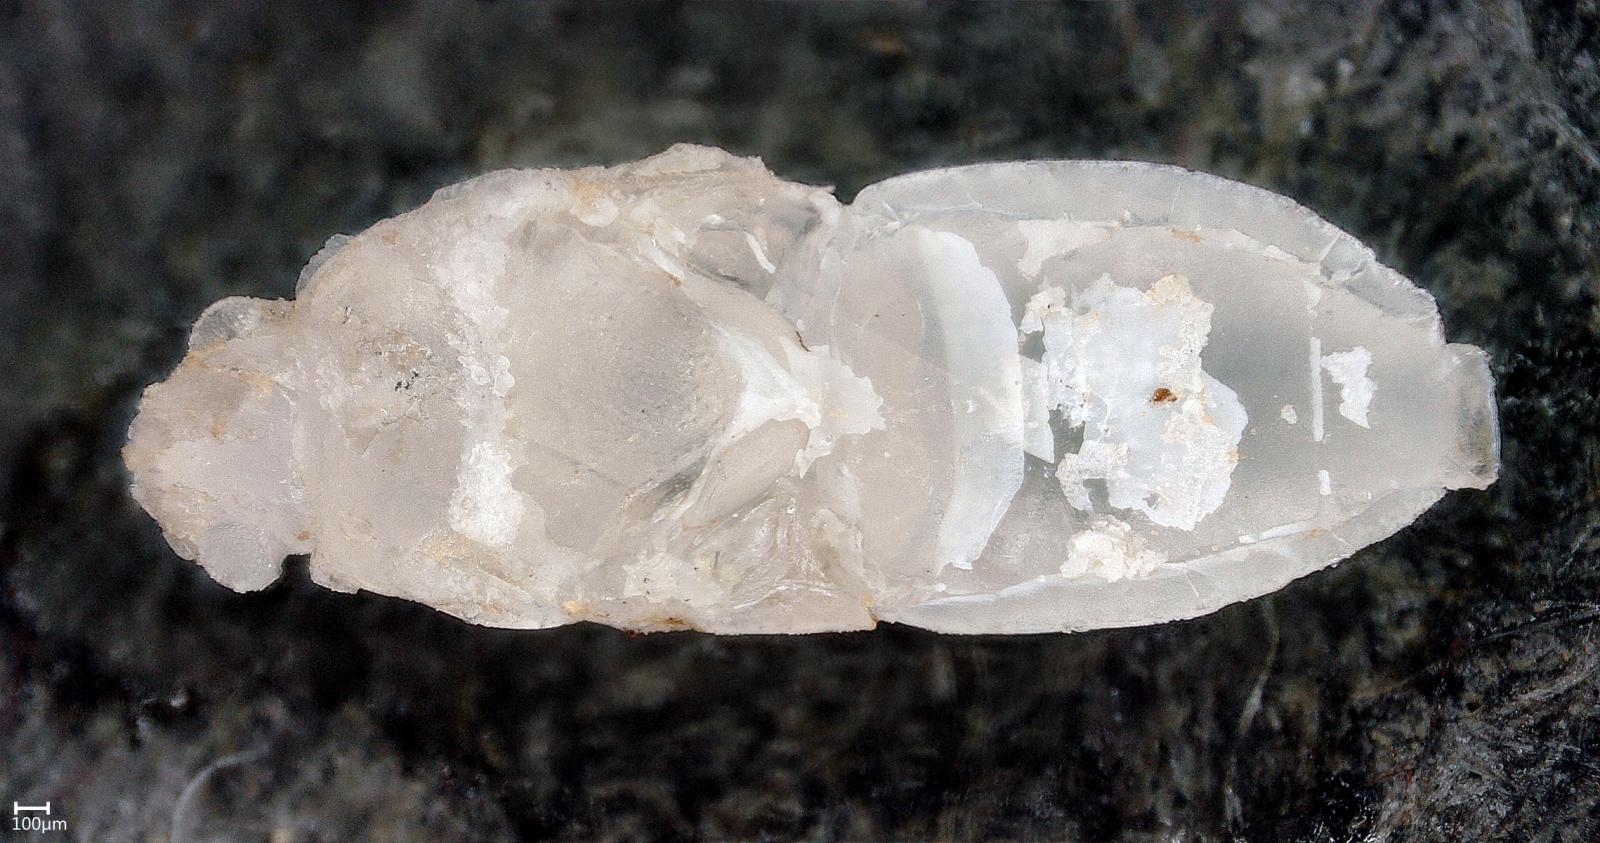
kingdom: Animalia
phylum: Arthropoda
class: Insecta
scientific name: Insecta
